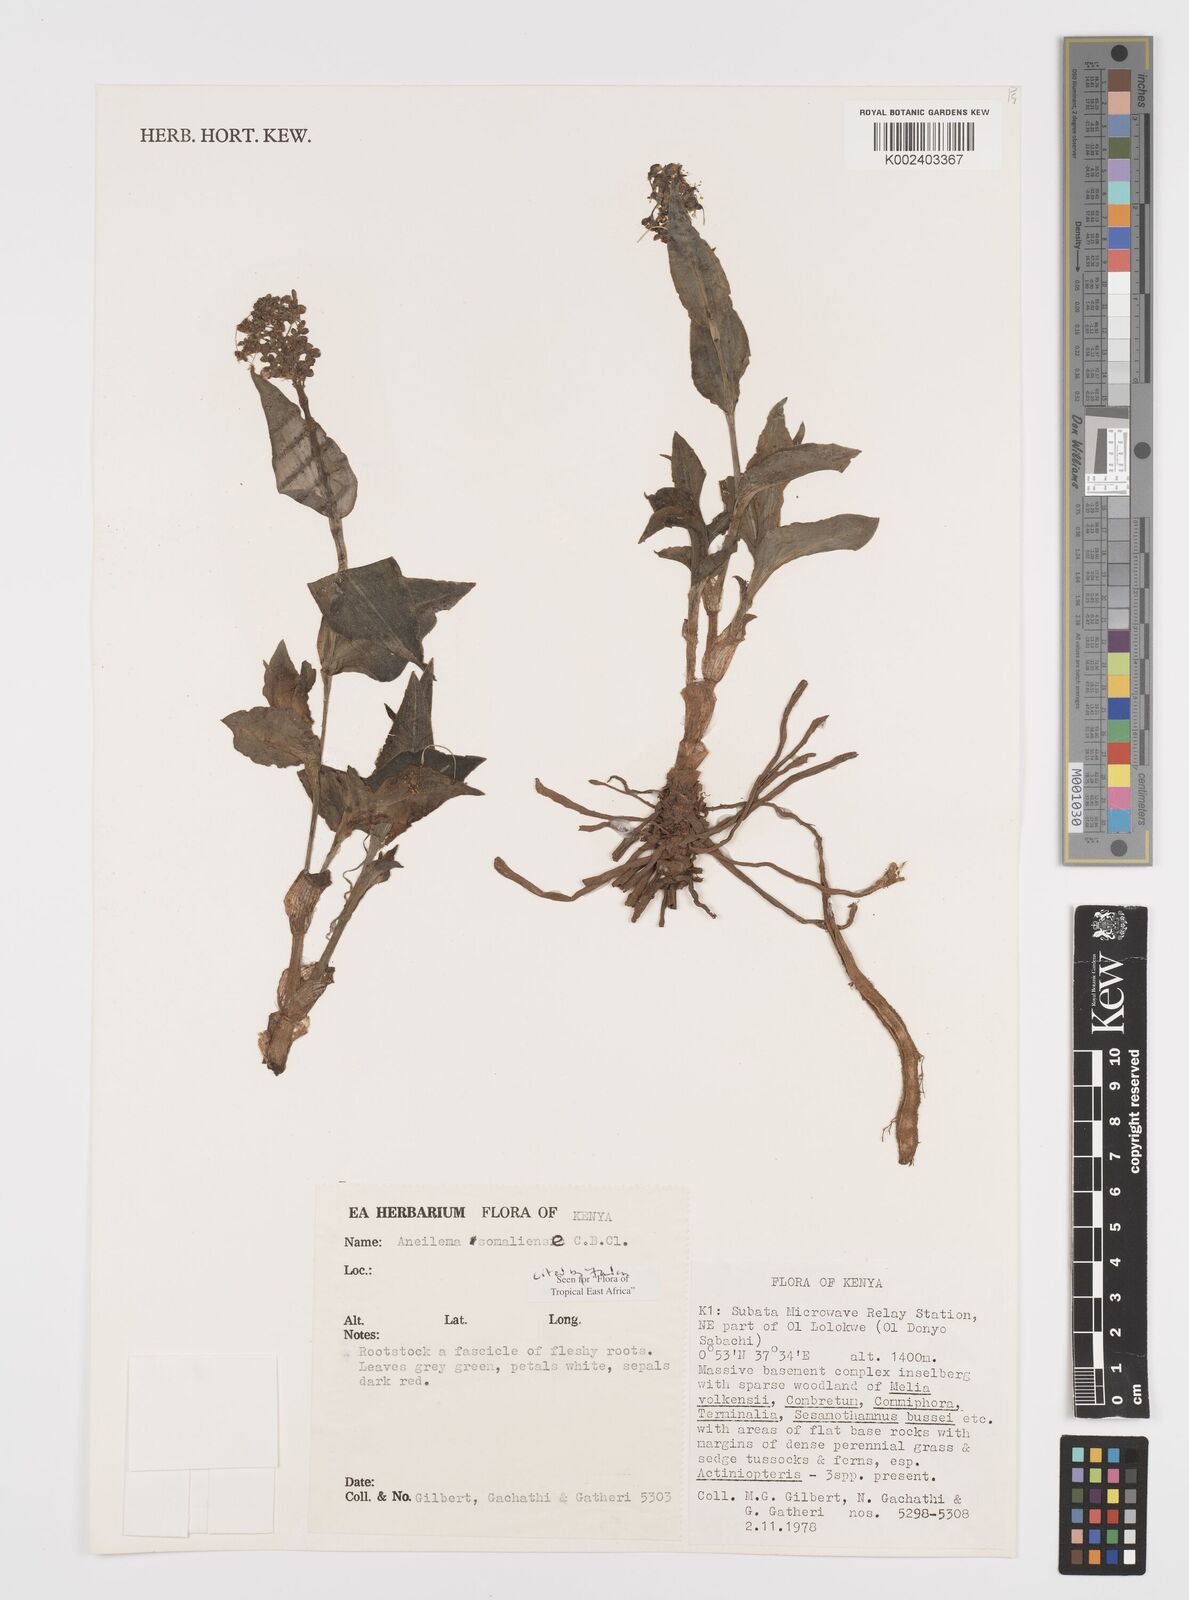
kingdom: Plantae
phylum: Tracheophyta
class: Liliopsida
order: Commelinales
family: Commelinaceae
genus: Aneilema
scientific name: Aneilema somaliense
